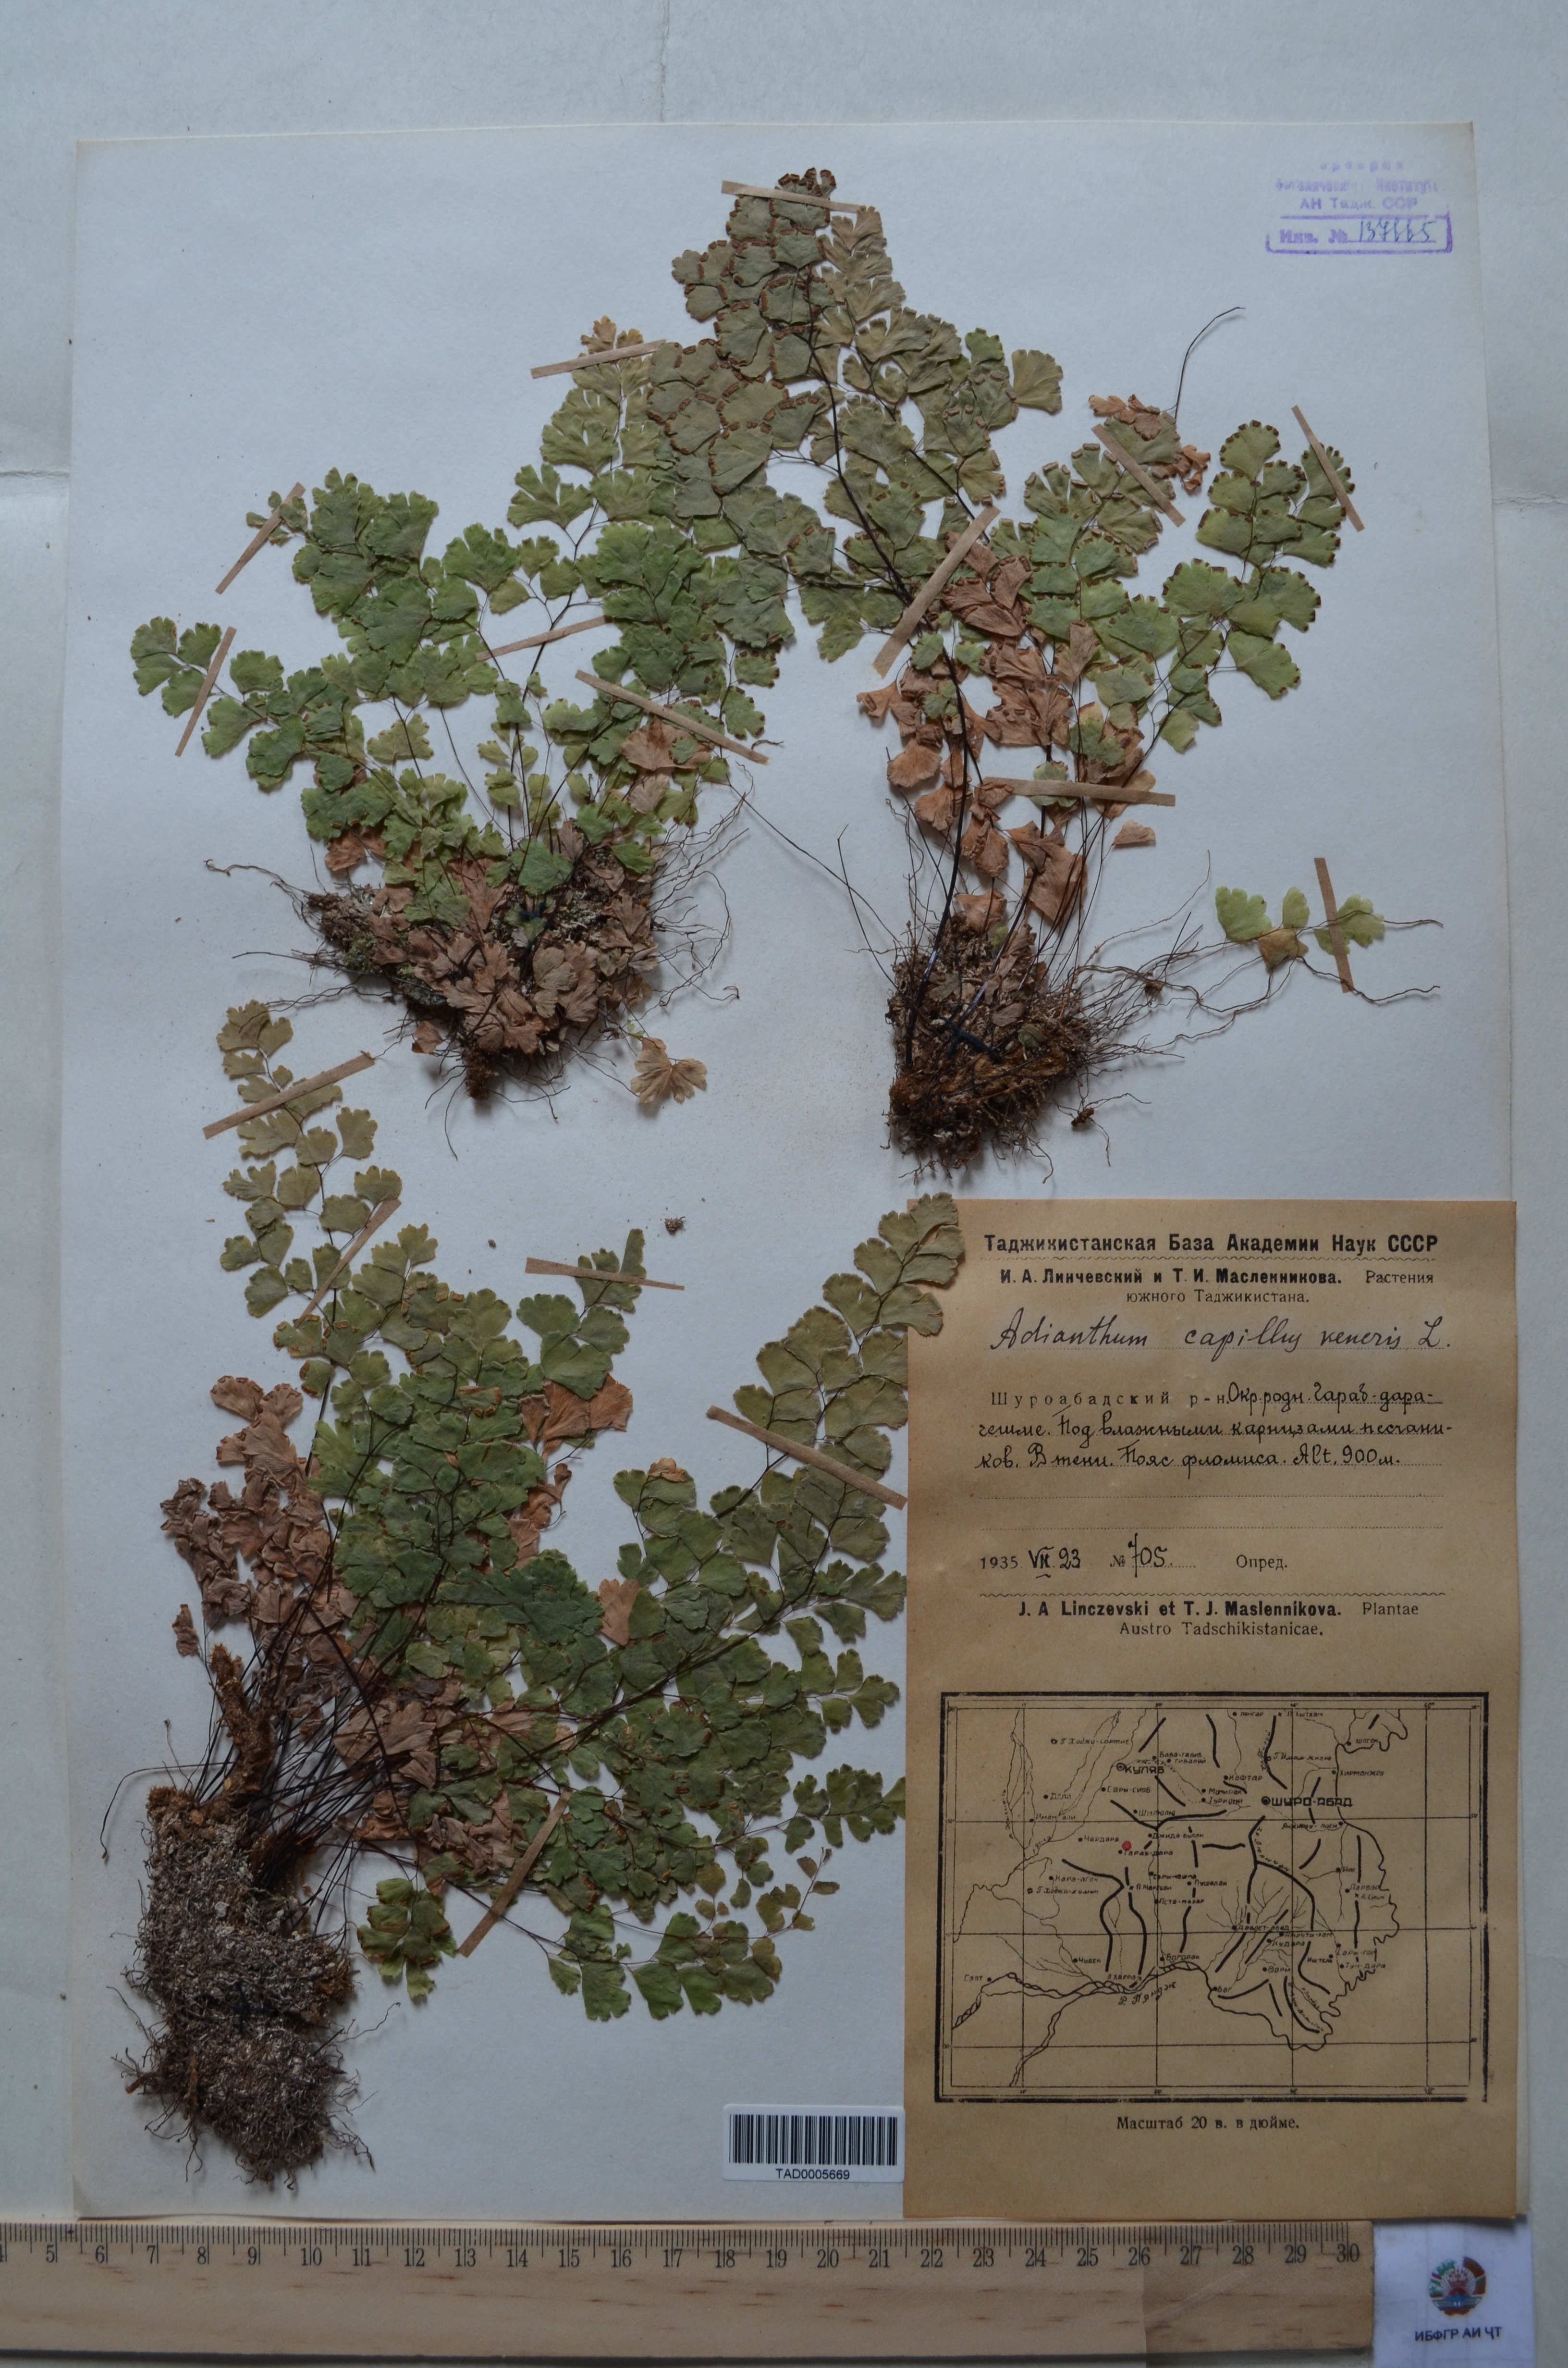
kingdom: Plantae
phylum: Tracheophyta
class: Polypodiopsida
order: Polypodiales
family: Pteridaceae
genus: Adiantum
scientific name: Adiantum capillus-veneris
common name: Maidenhair fern
